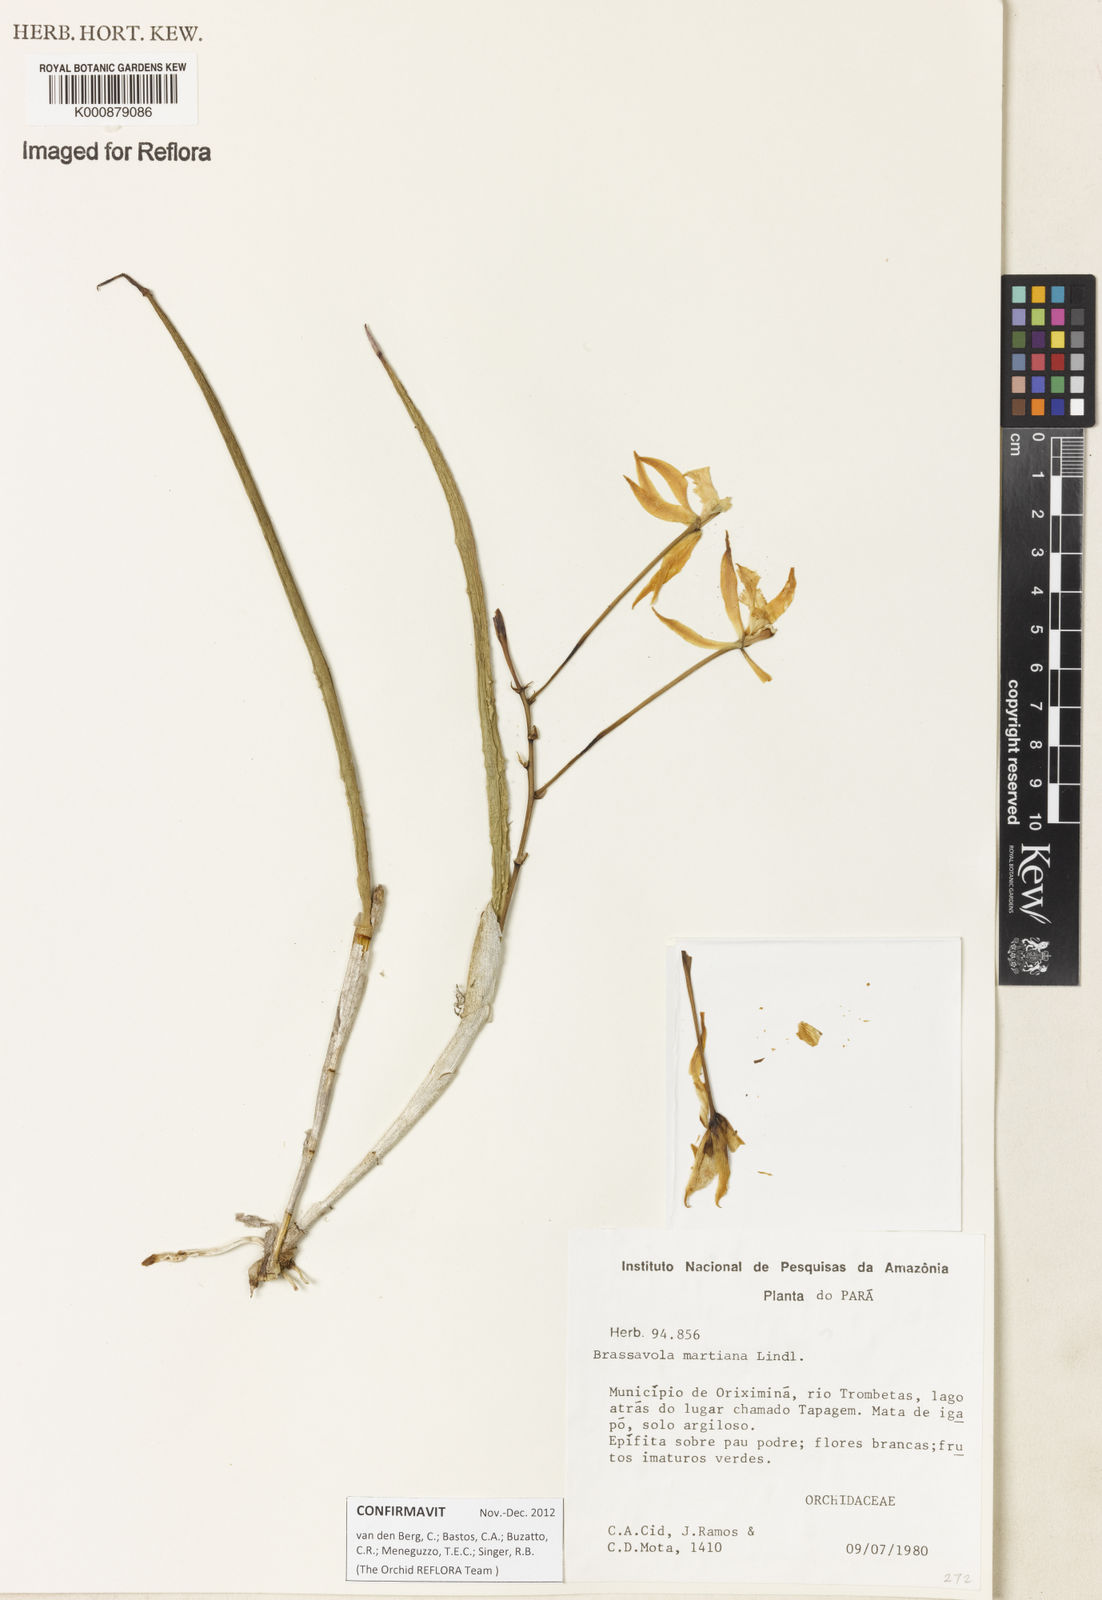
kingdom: Plantae
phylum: Tracheophyta
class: Liliopsida
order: Asparagales
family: Orchidaceae
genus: Brassavola
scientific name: Brassavola martiana
